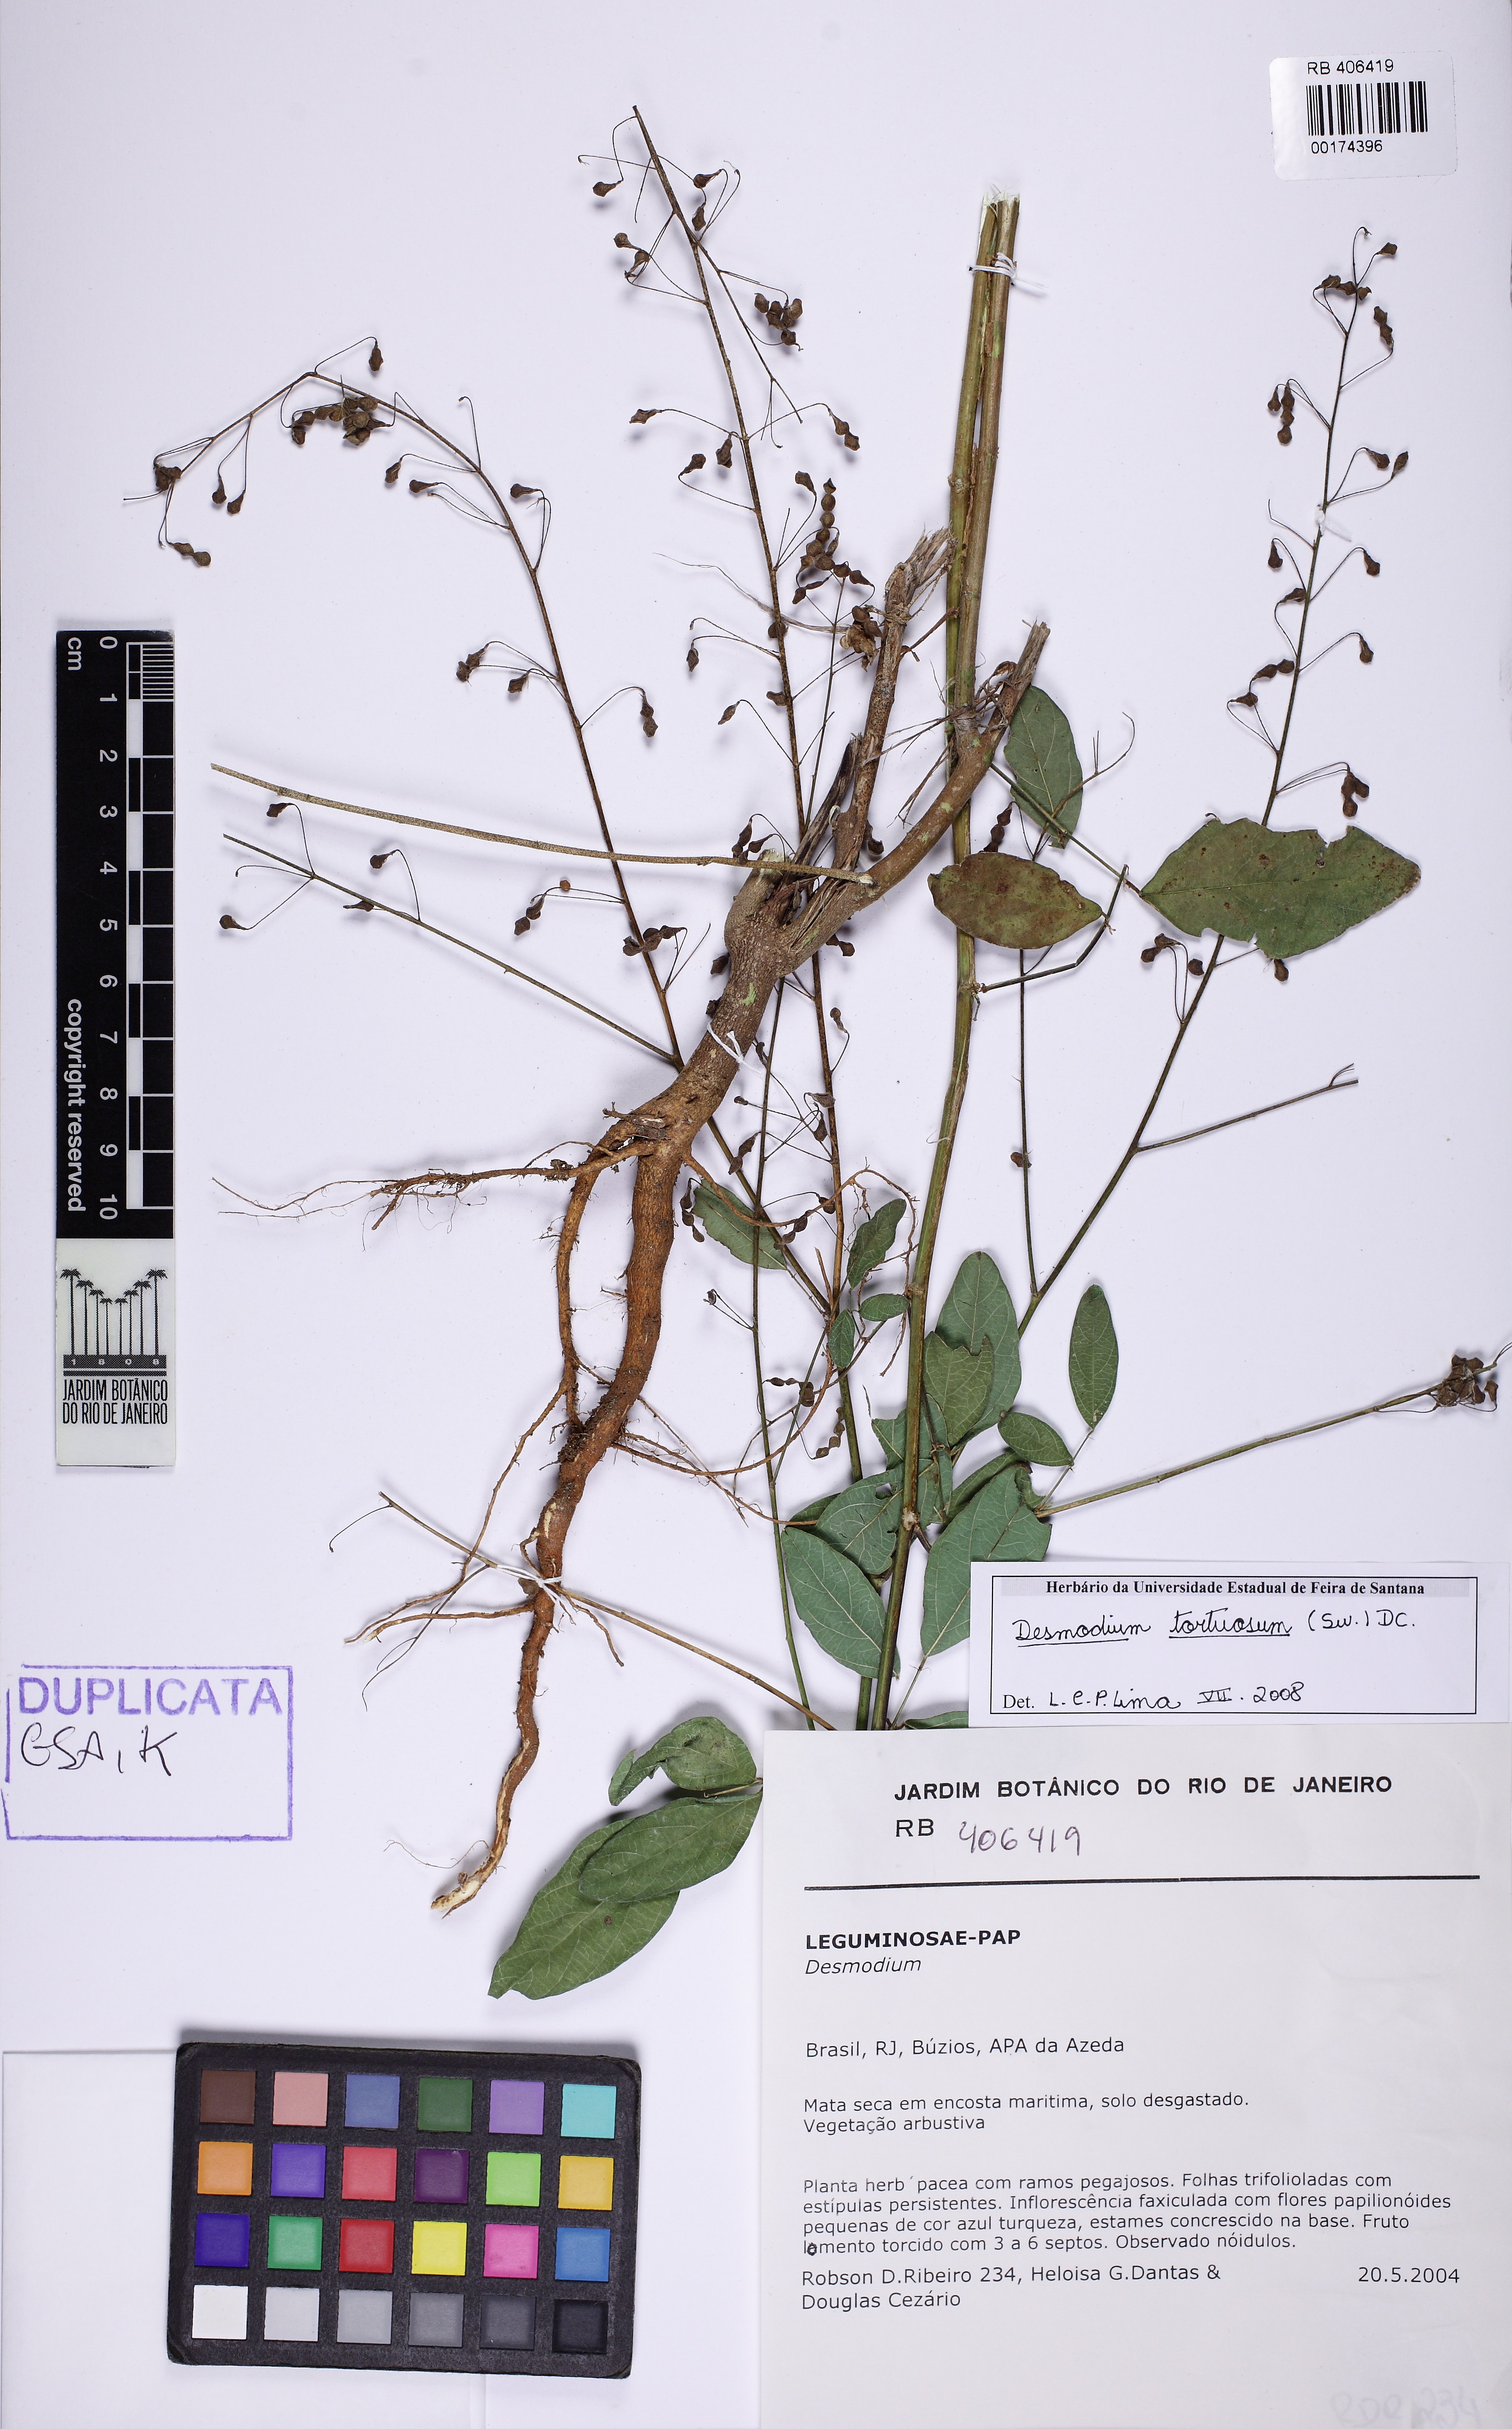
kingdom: Plantae
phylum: Tracheophyta
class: Magnoliopsida
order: Fabales
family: Fabaceae
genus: Desmodium
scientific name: Desmodium tortuosum
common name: Dixie ticktrefoil
